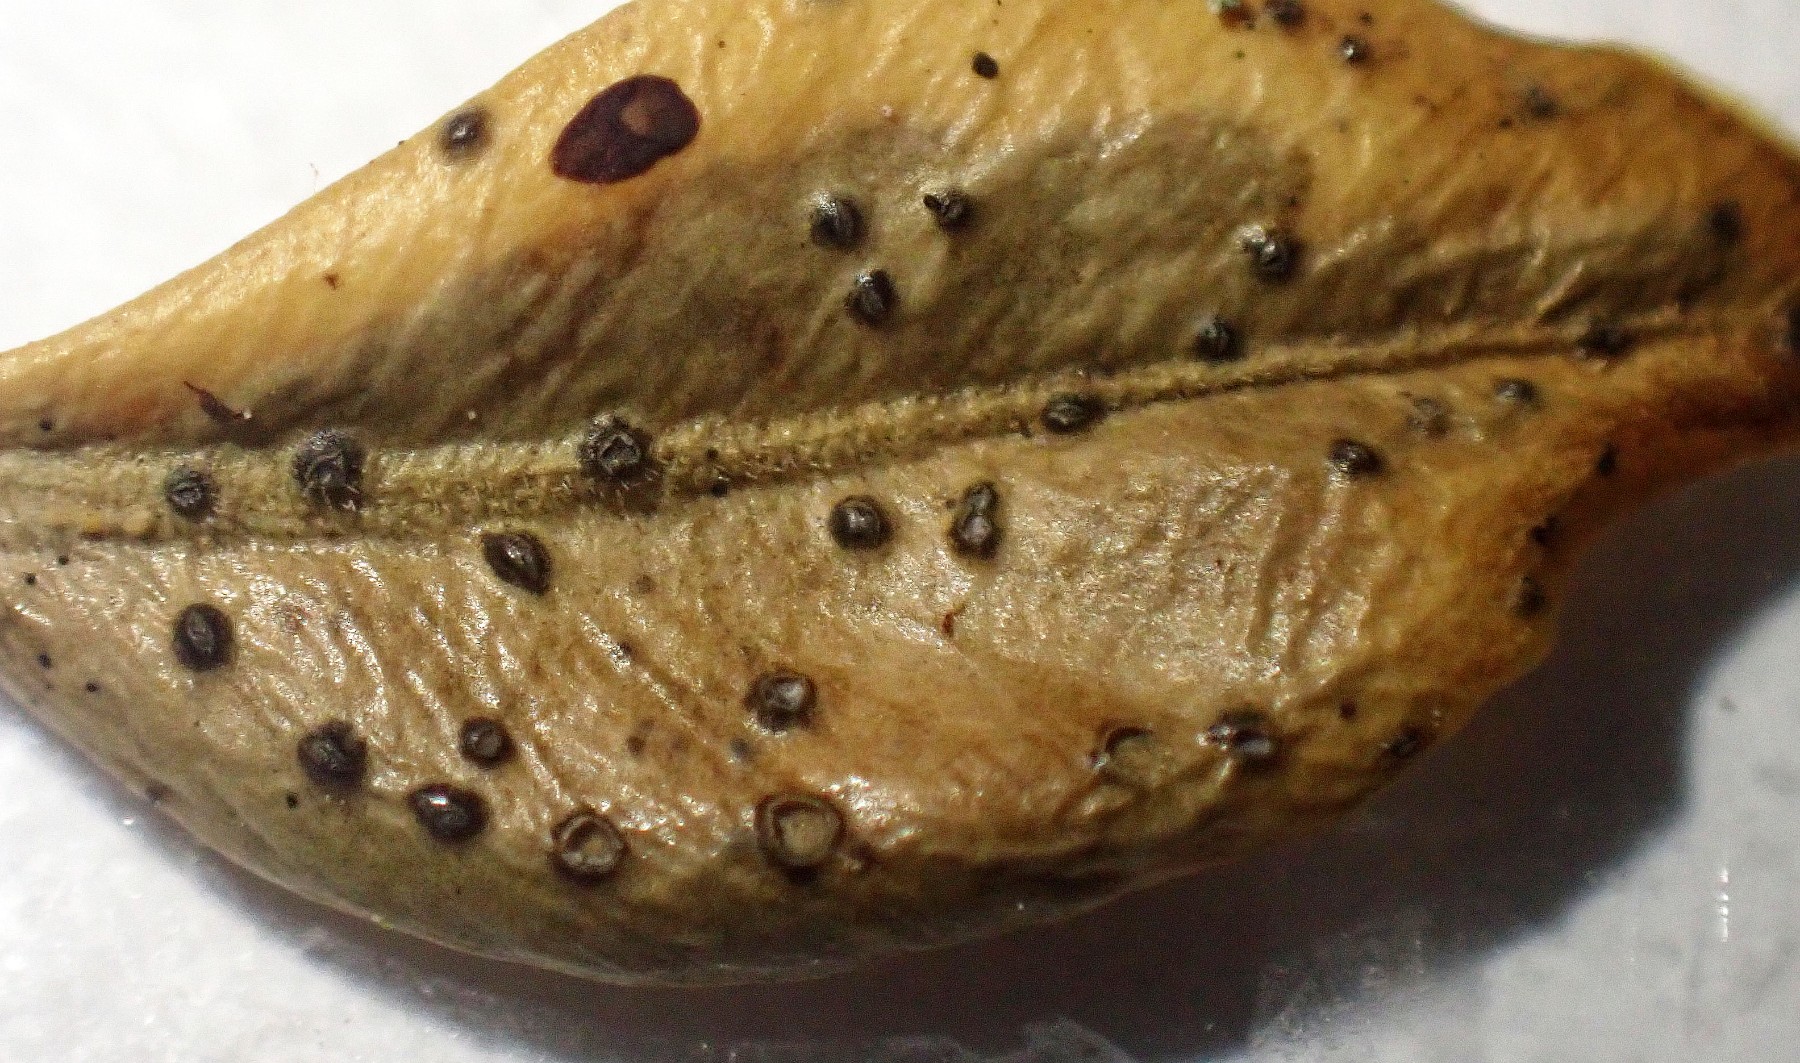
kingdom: Fungi
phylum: Ascomycota
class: Sordariomycetes
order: Diaporthales
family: Diaporthaceae
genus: Diaporthe
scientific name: Diaporthe stictica
